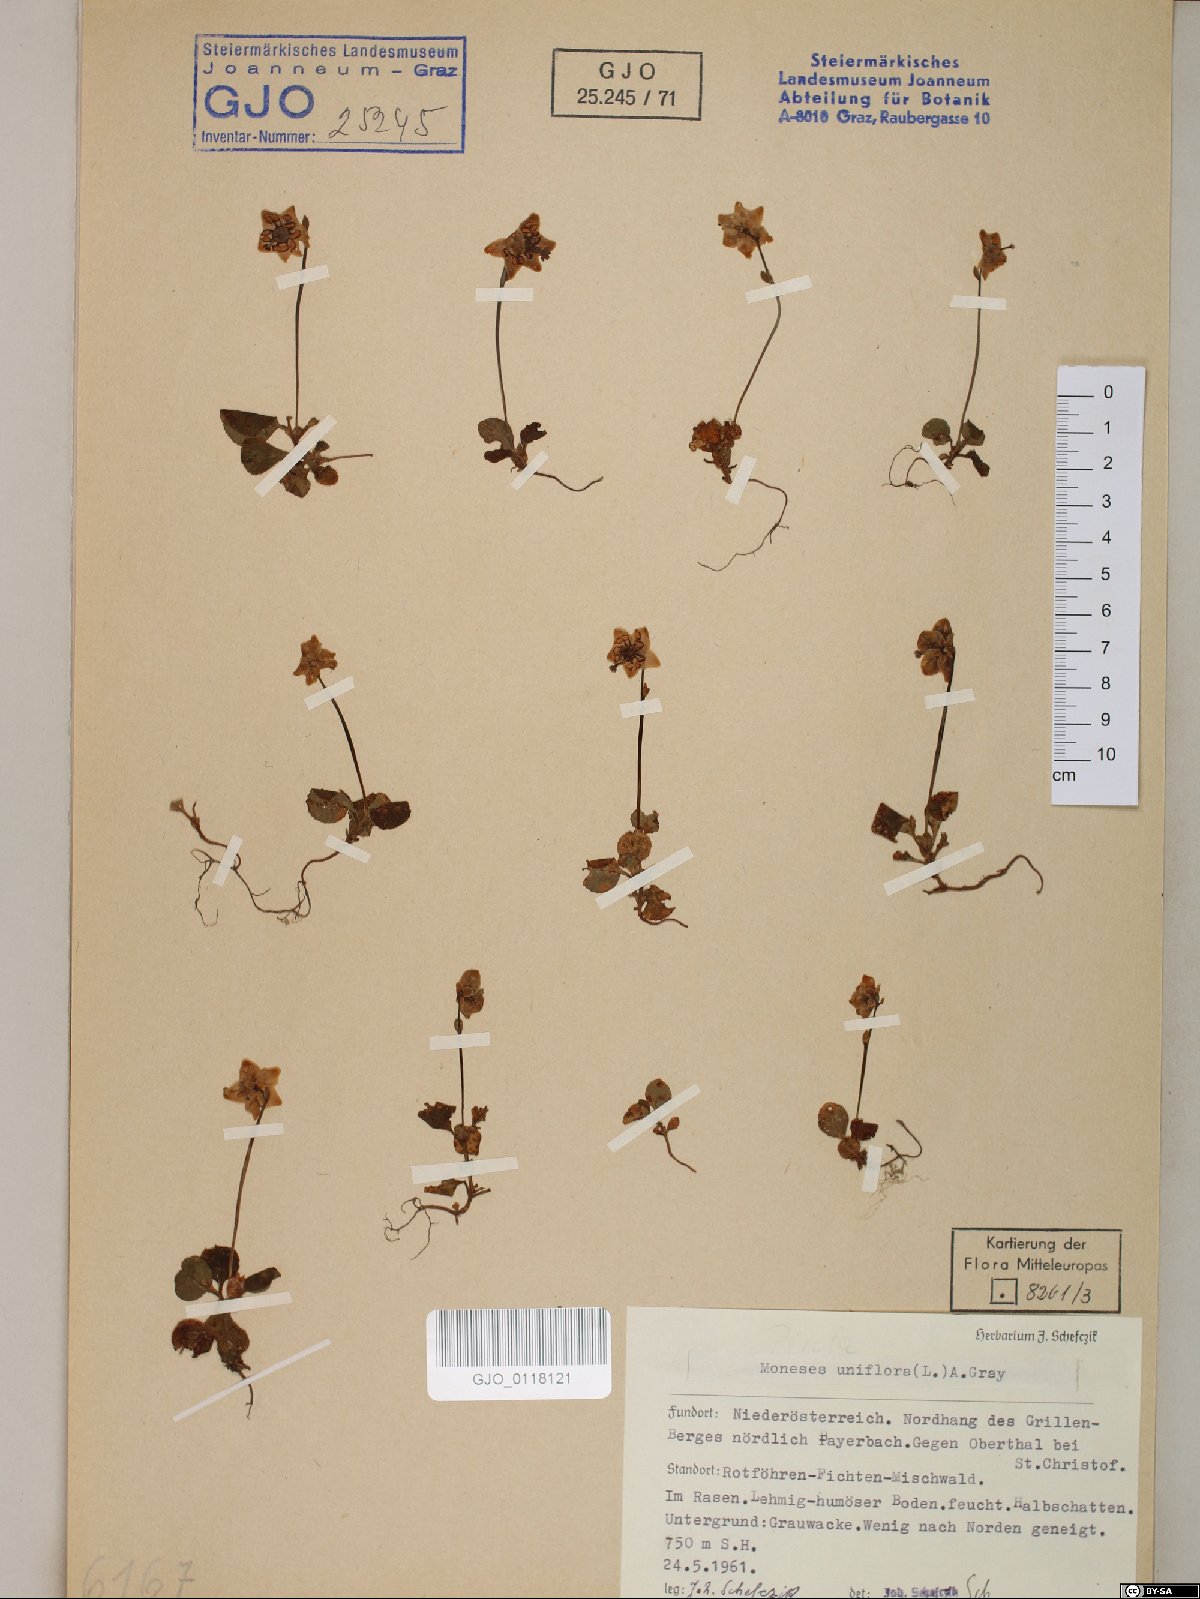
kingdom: Plantae
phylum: Tracheophyta
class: Magnoliopsida
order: Ericales
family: Ericaceae
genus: Moneses
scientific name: Moneses uniflora
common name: One-flowered wintergreen
